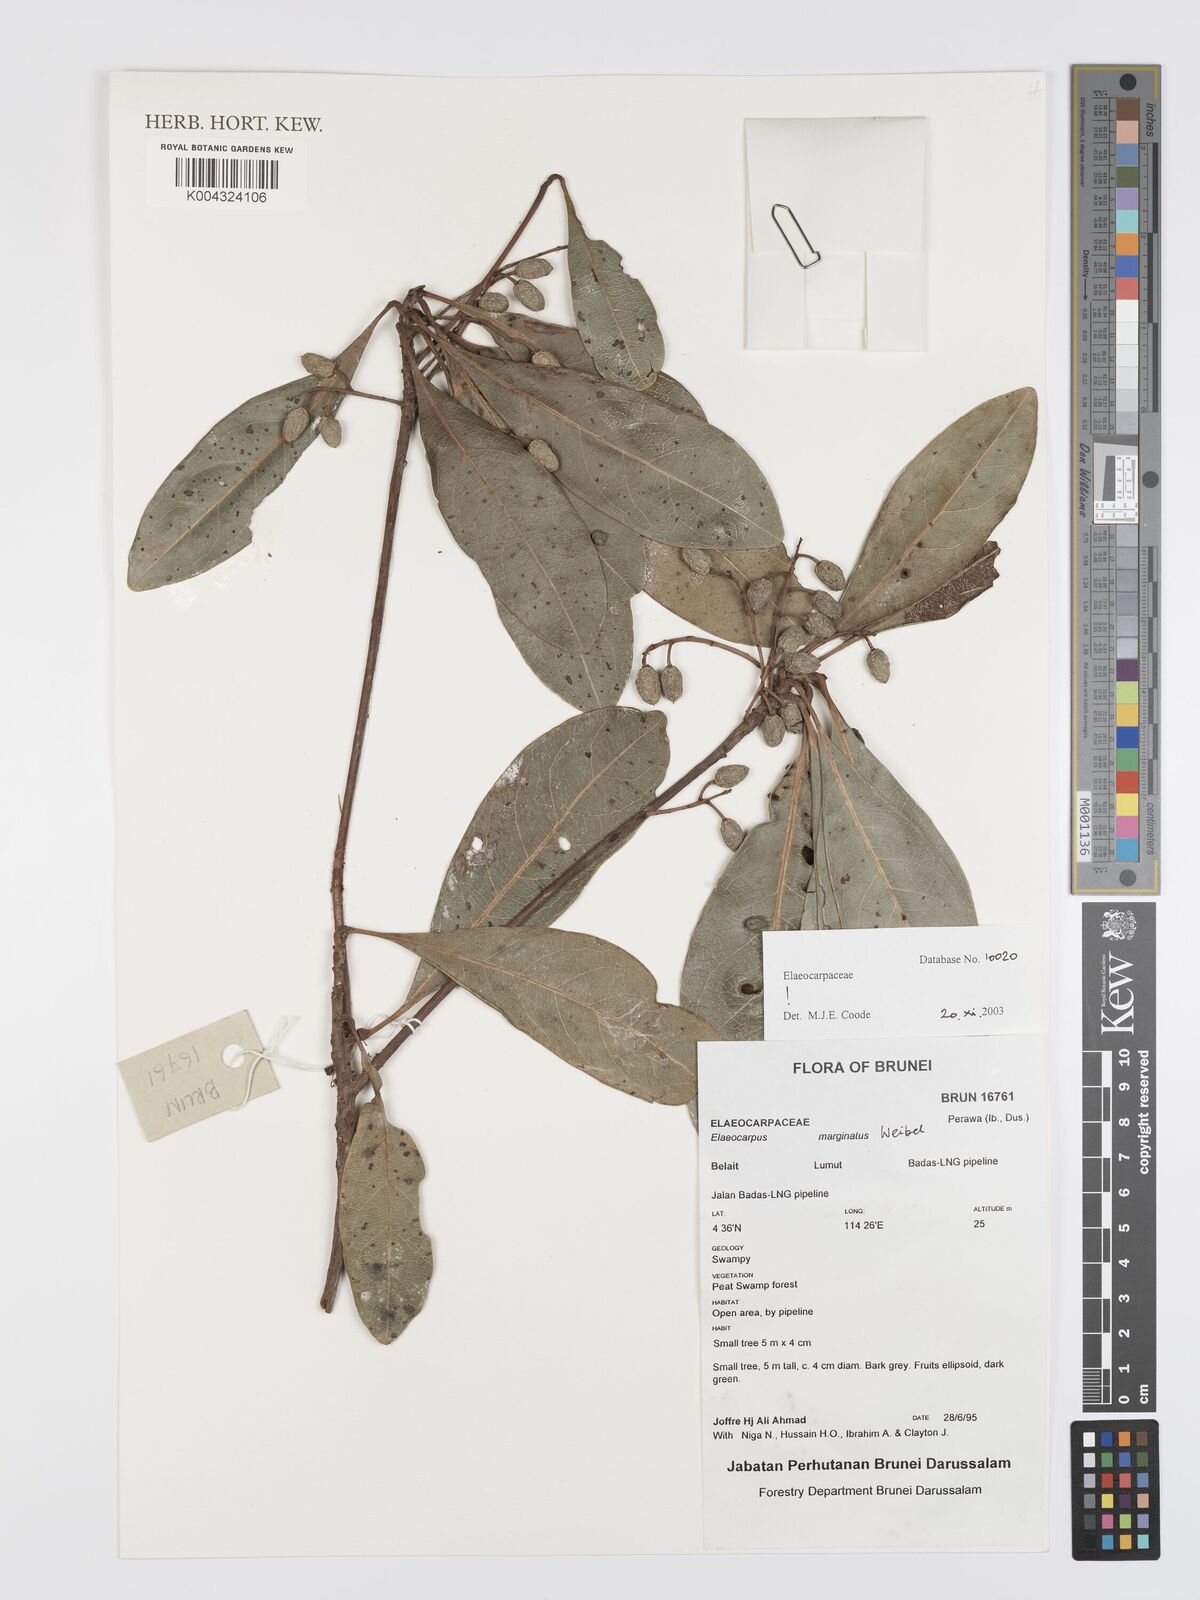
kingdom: Plantae
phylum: Tracheophyta
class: Magnoliopsida
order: Oxalidales
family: Elaeocarpaceae
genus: Elaeocarpus
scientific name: Elaeocarpus marginatus
